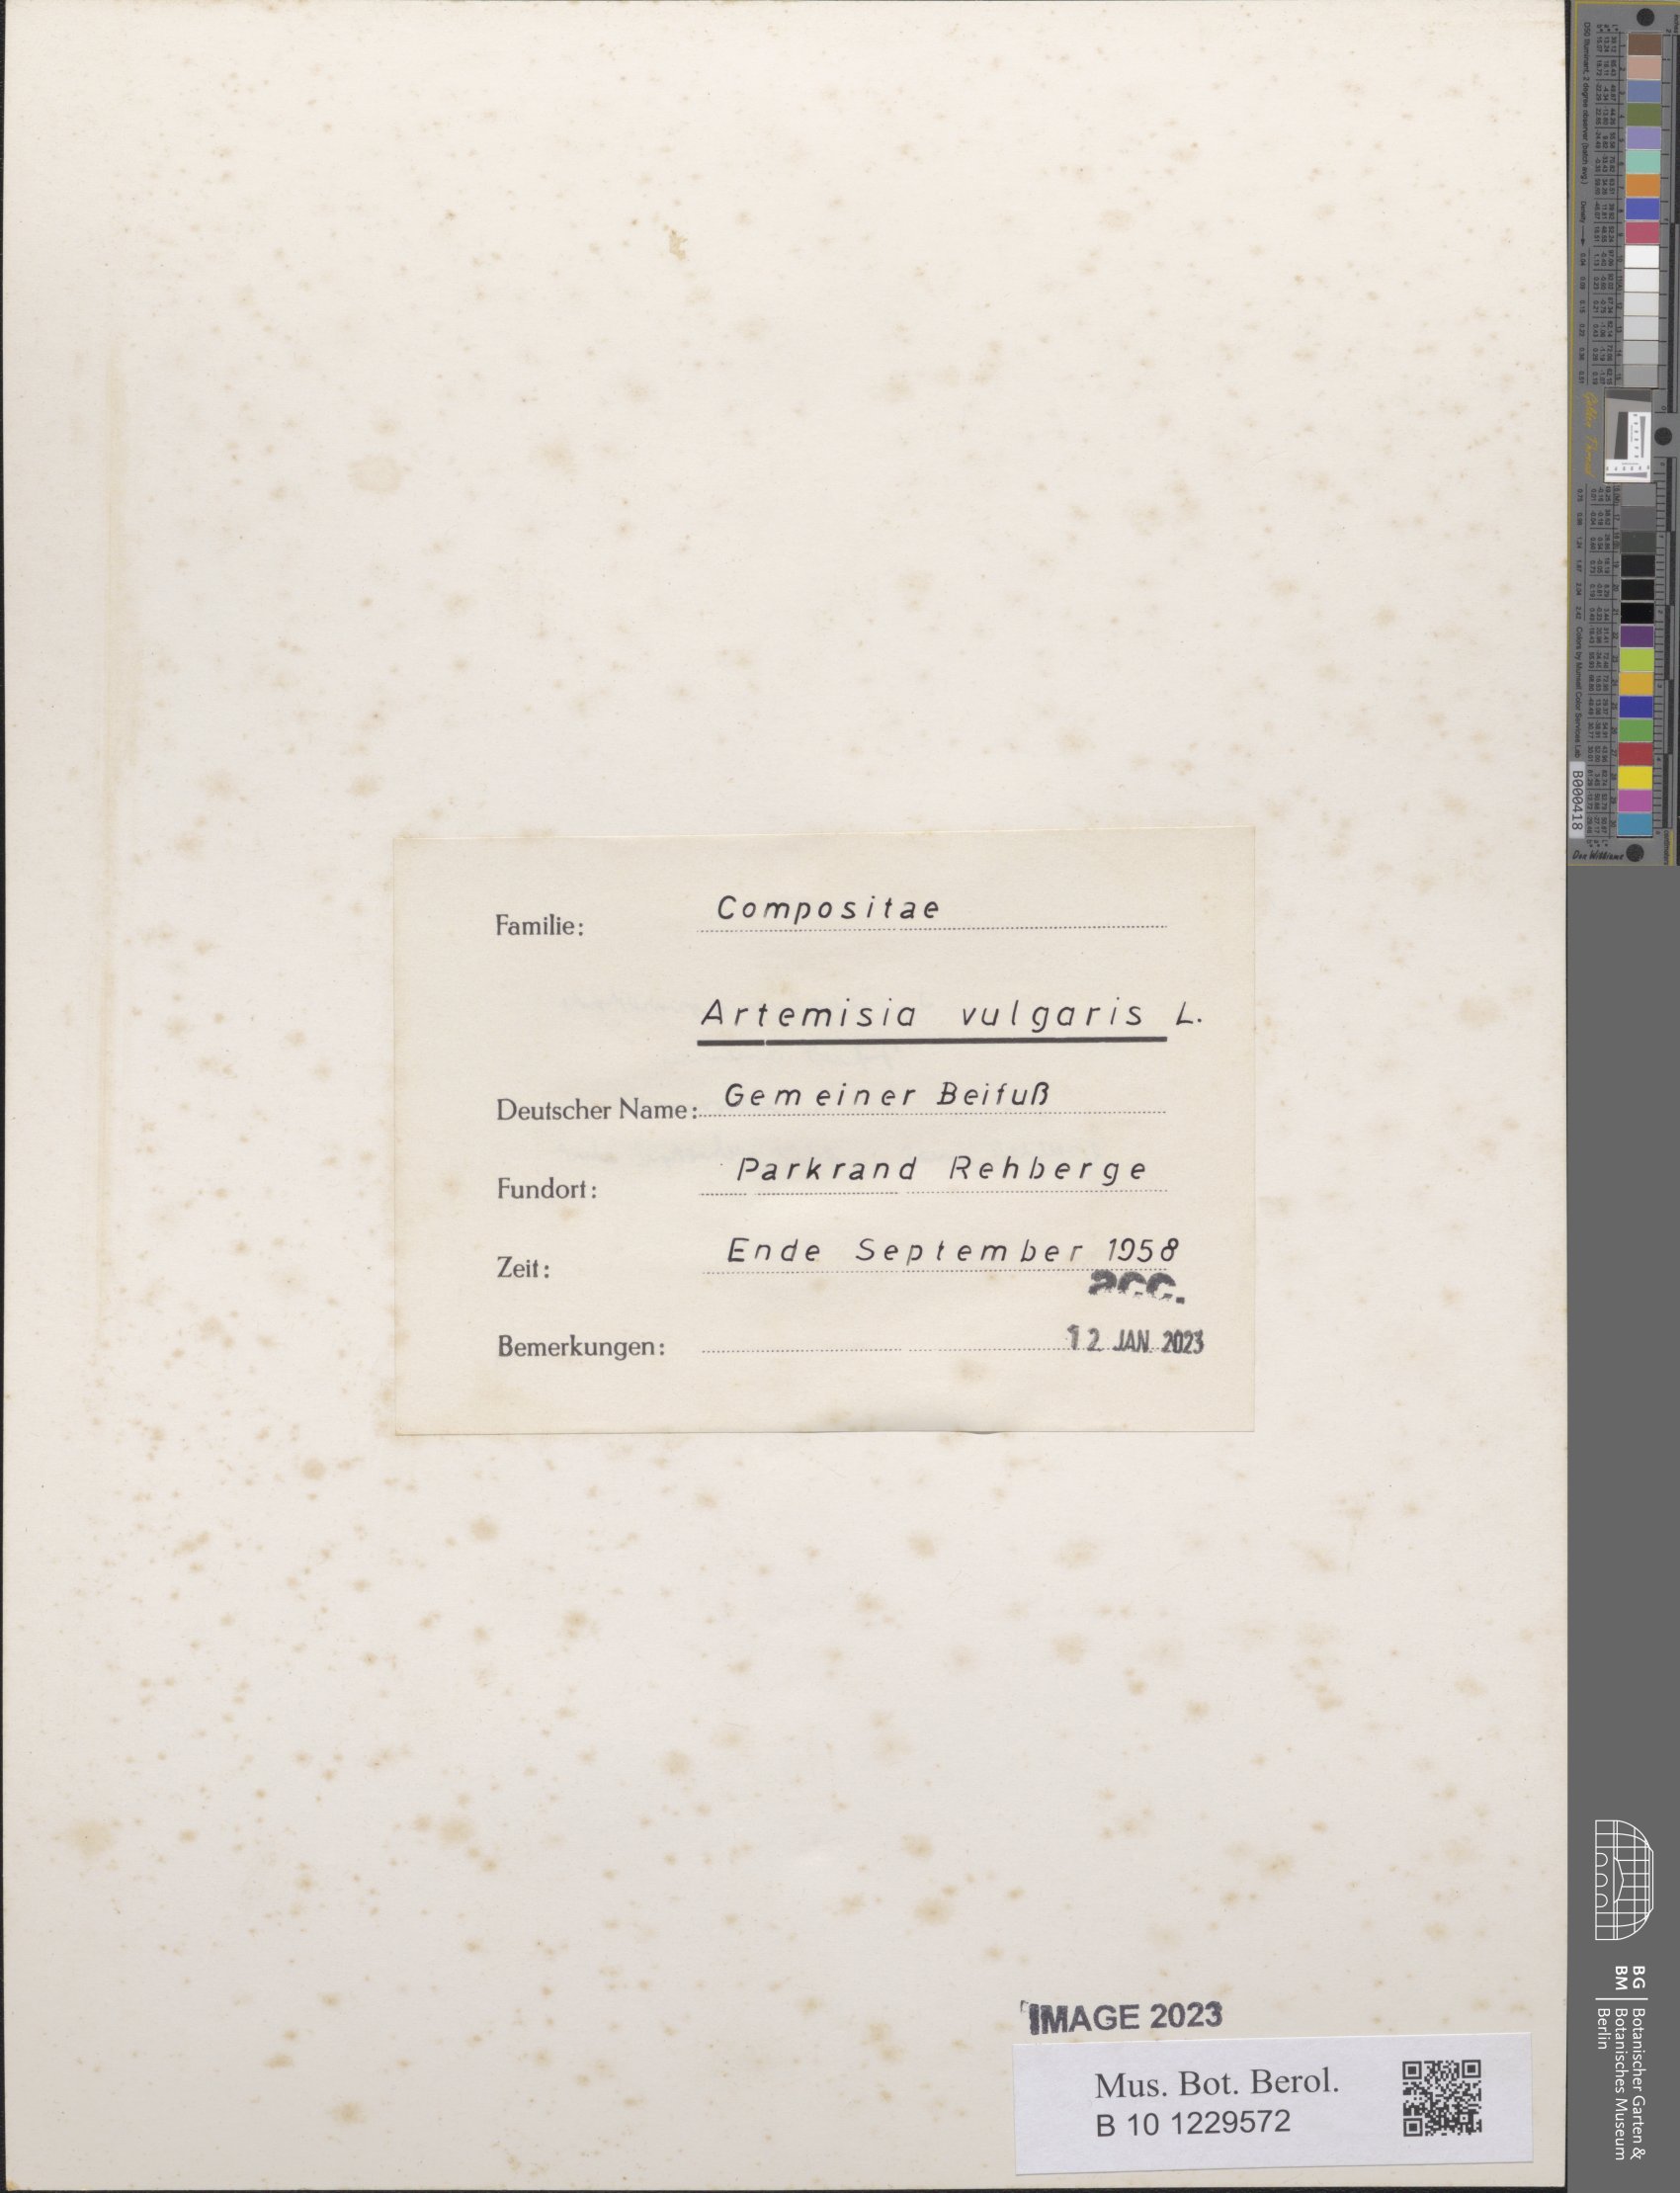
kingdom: Plantae
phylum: Tracheophyta
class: Magnoliopsida
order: Asterales
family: Asteraceae
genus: Artemisia
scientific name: Artemisia vulgaris
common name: Mugwort
